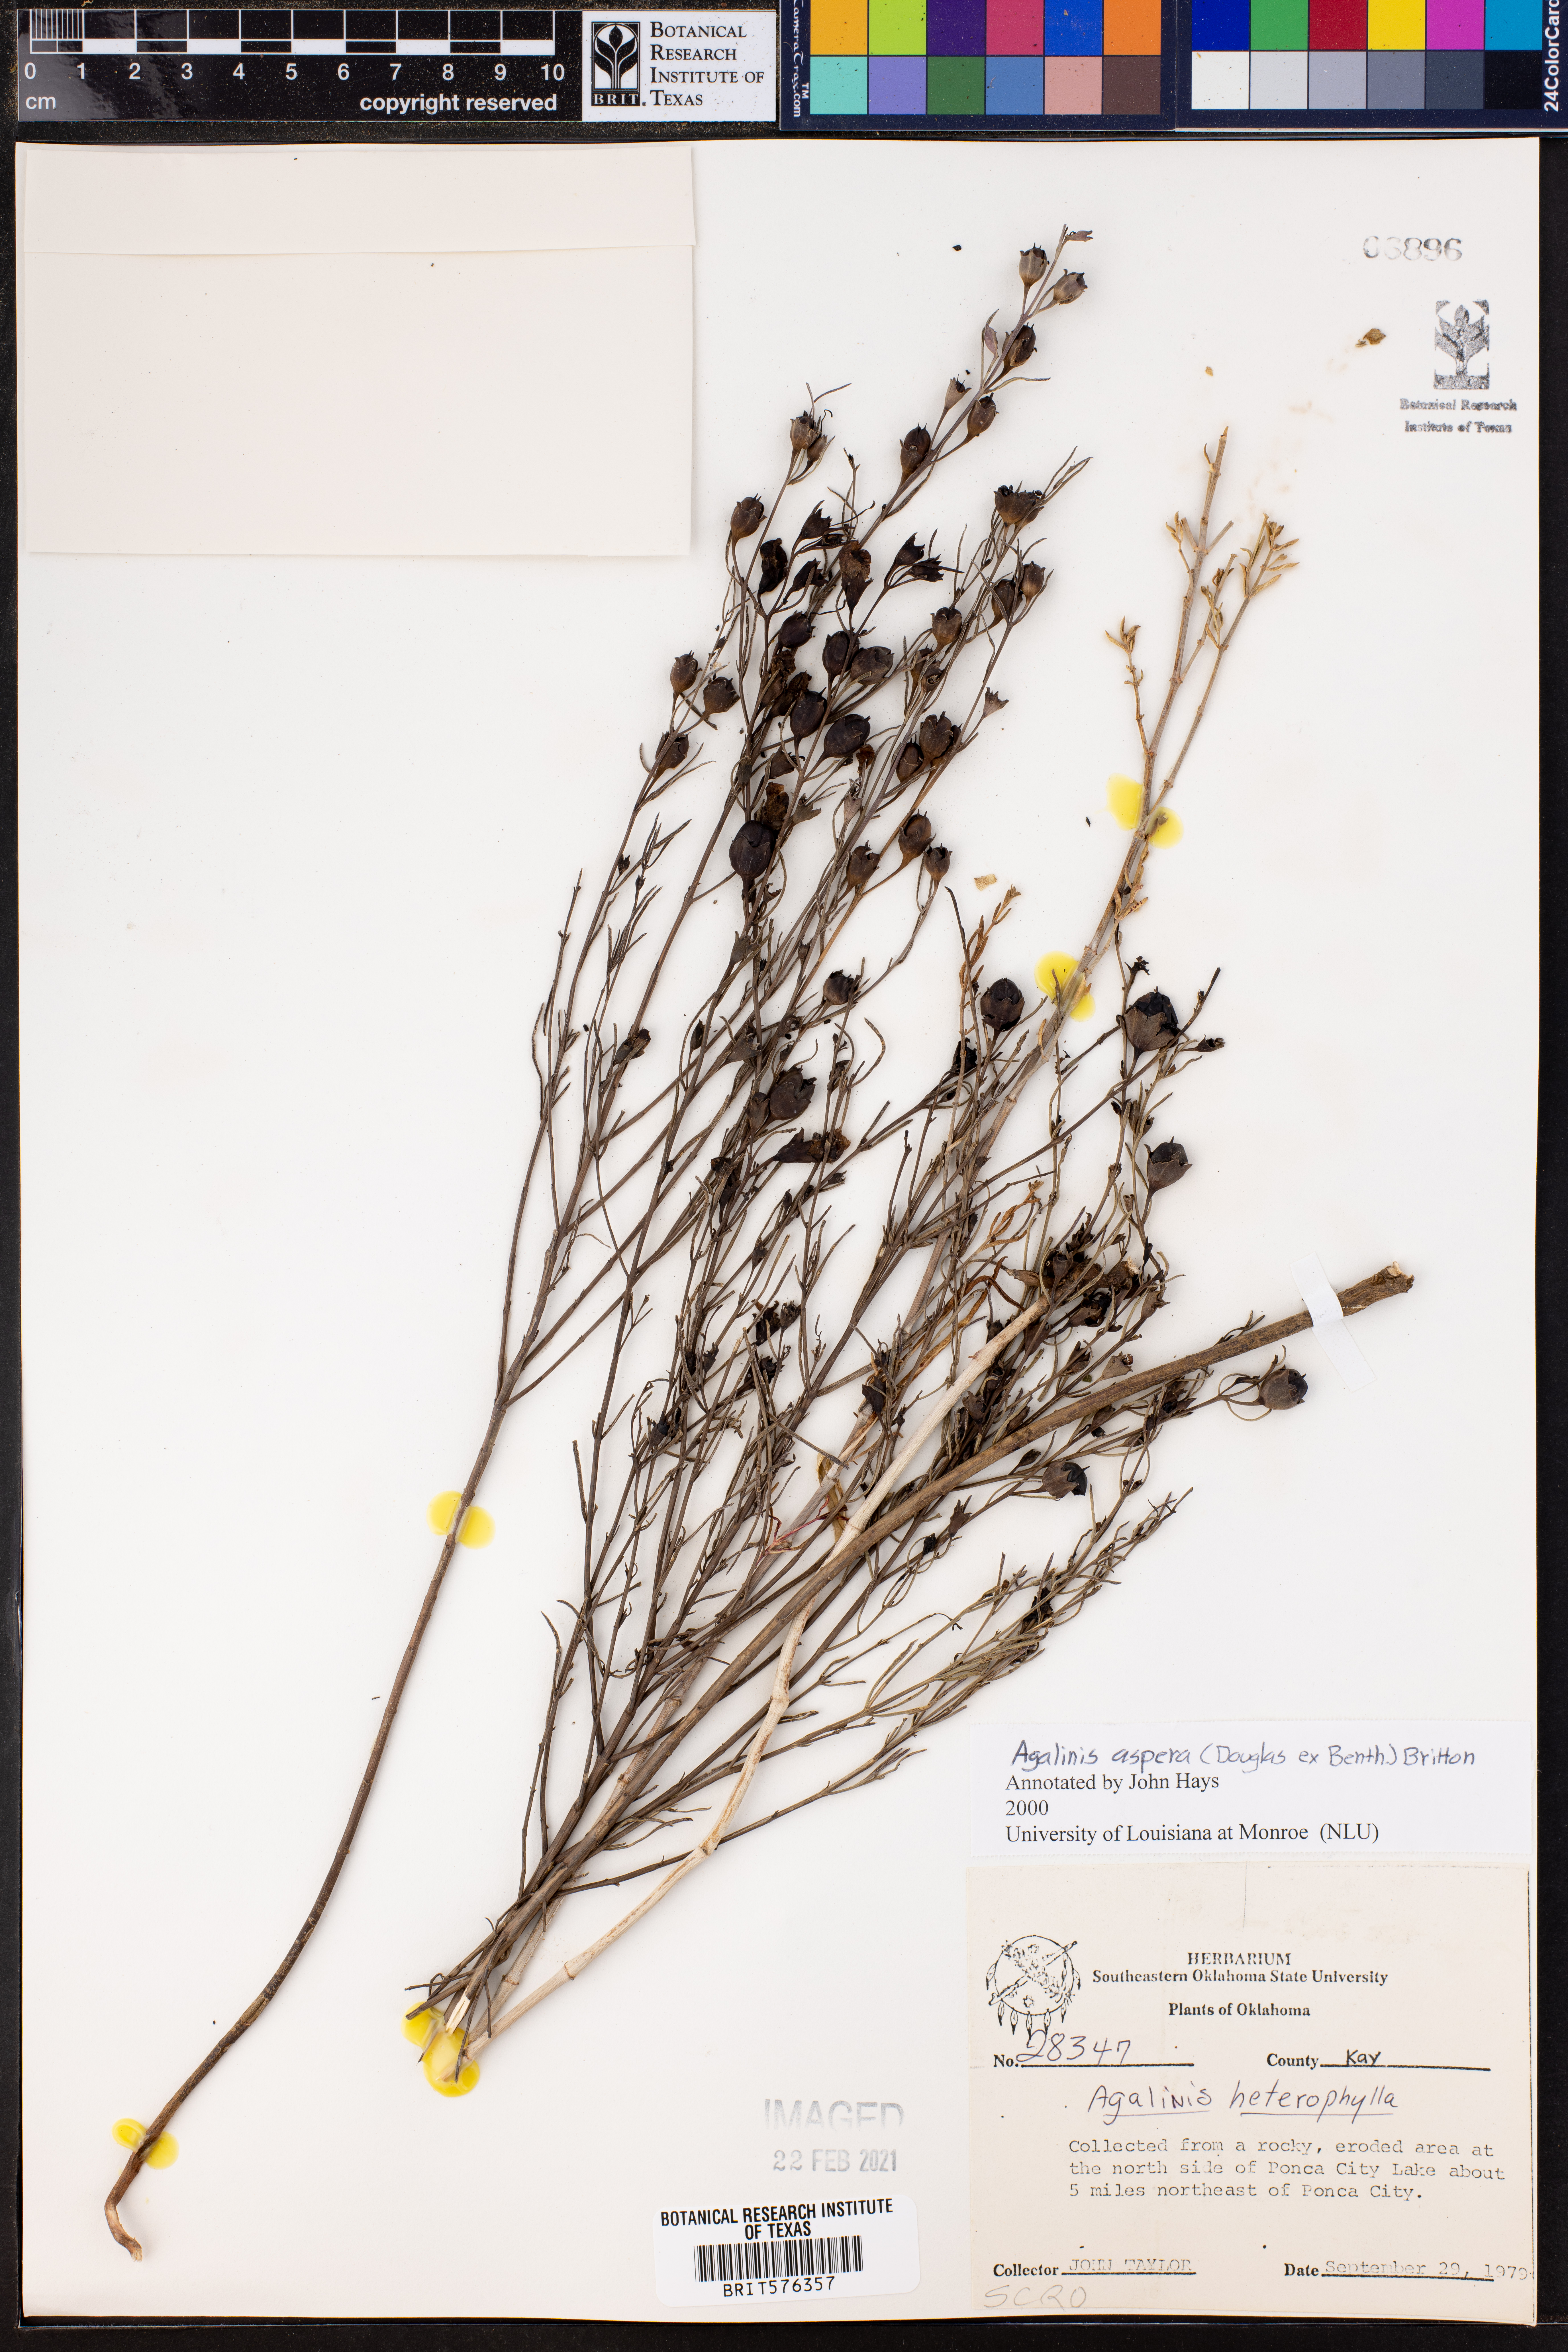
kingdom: Plantae
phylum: Tracheophyta
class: Magnoliopsida
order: Lamiales
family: Orobanchaceae
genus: Agalinis
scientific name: Agalinis aspera
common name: Rough agalinis
